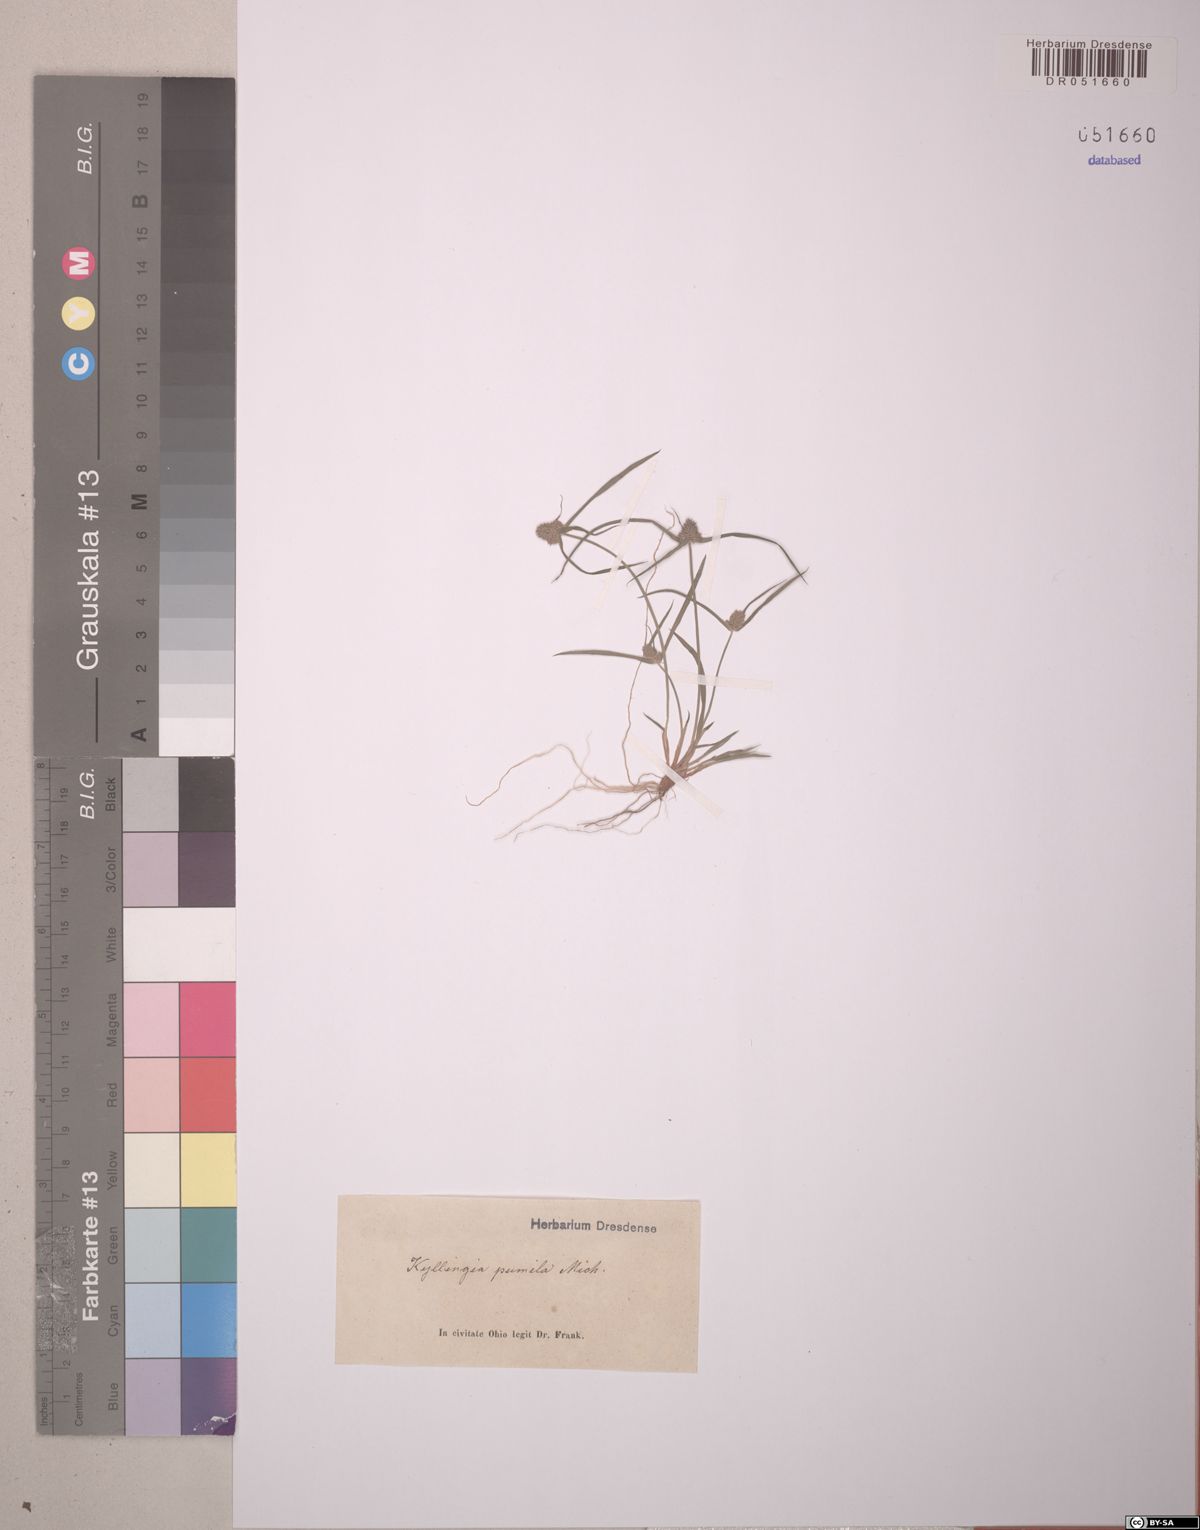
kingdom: Plantae
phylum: Tracheophyta
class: Liliopsida
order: Poales
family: Cyperaceae
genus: Cyperus
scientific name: Cyperus hortensis
